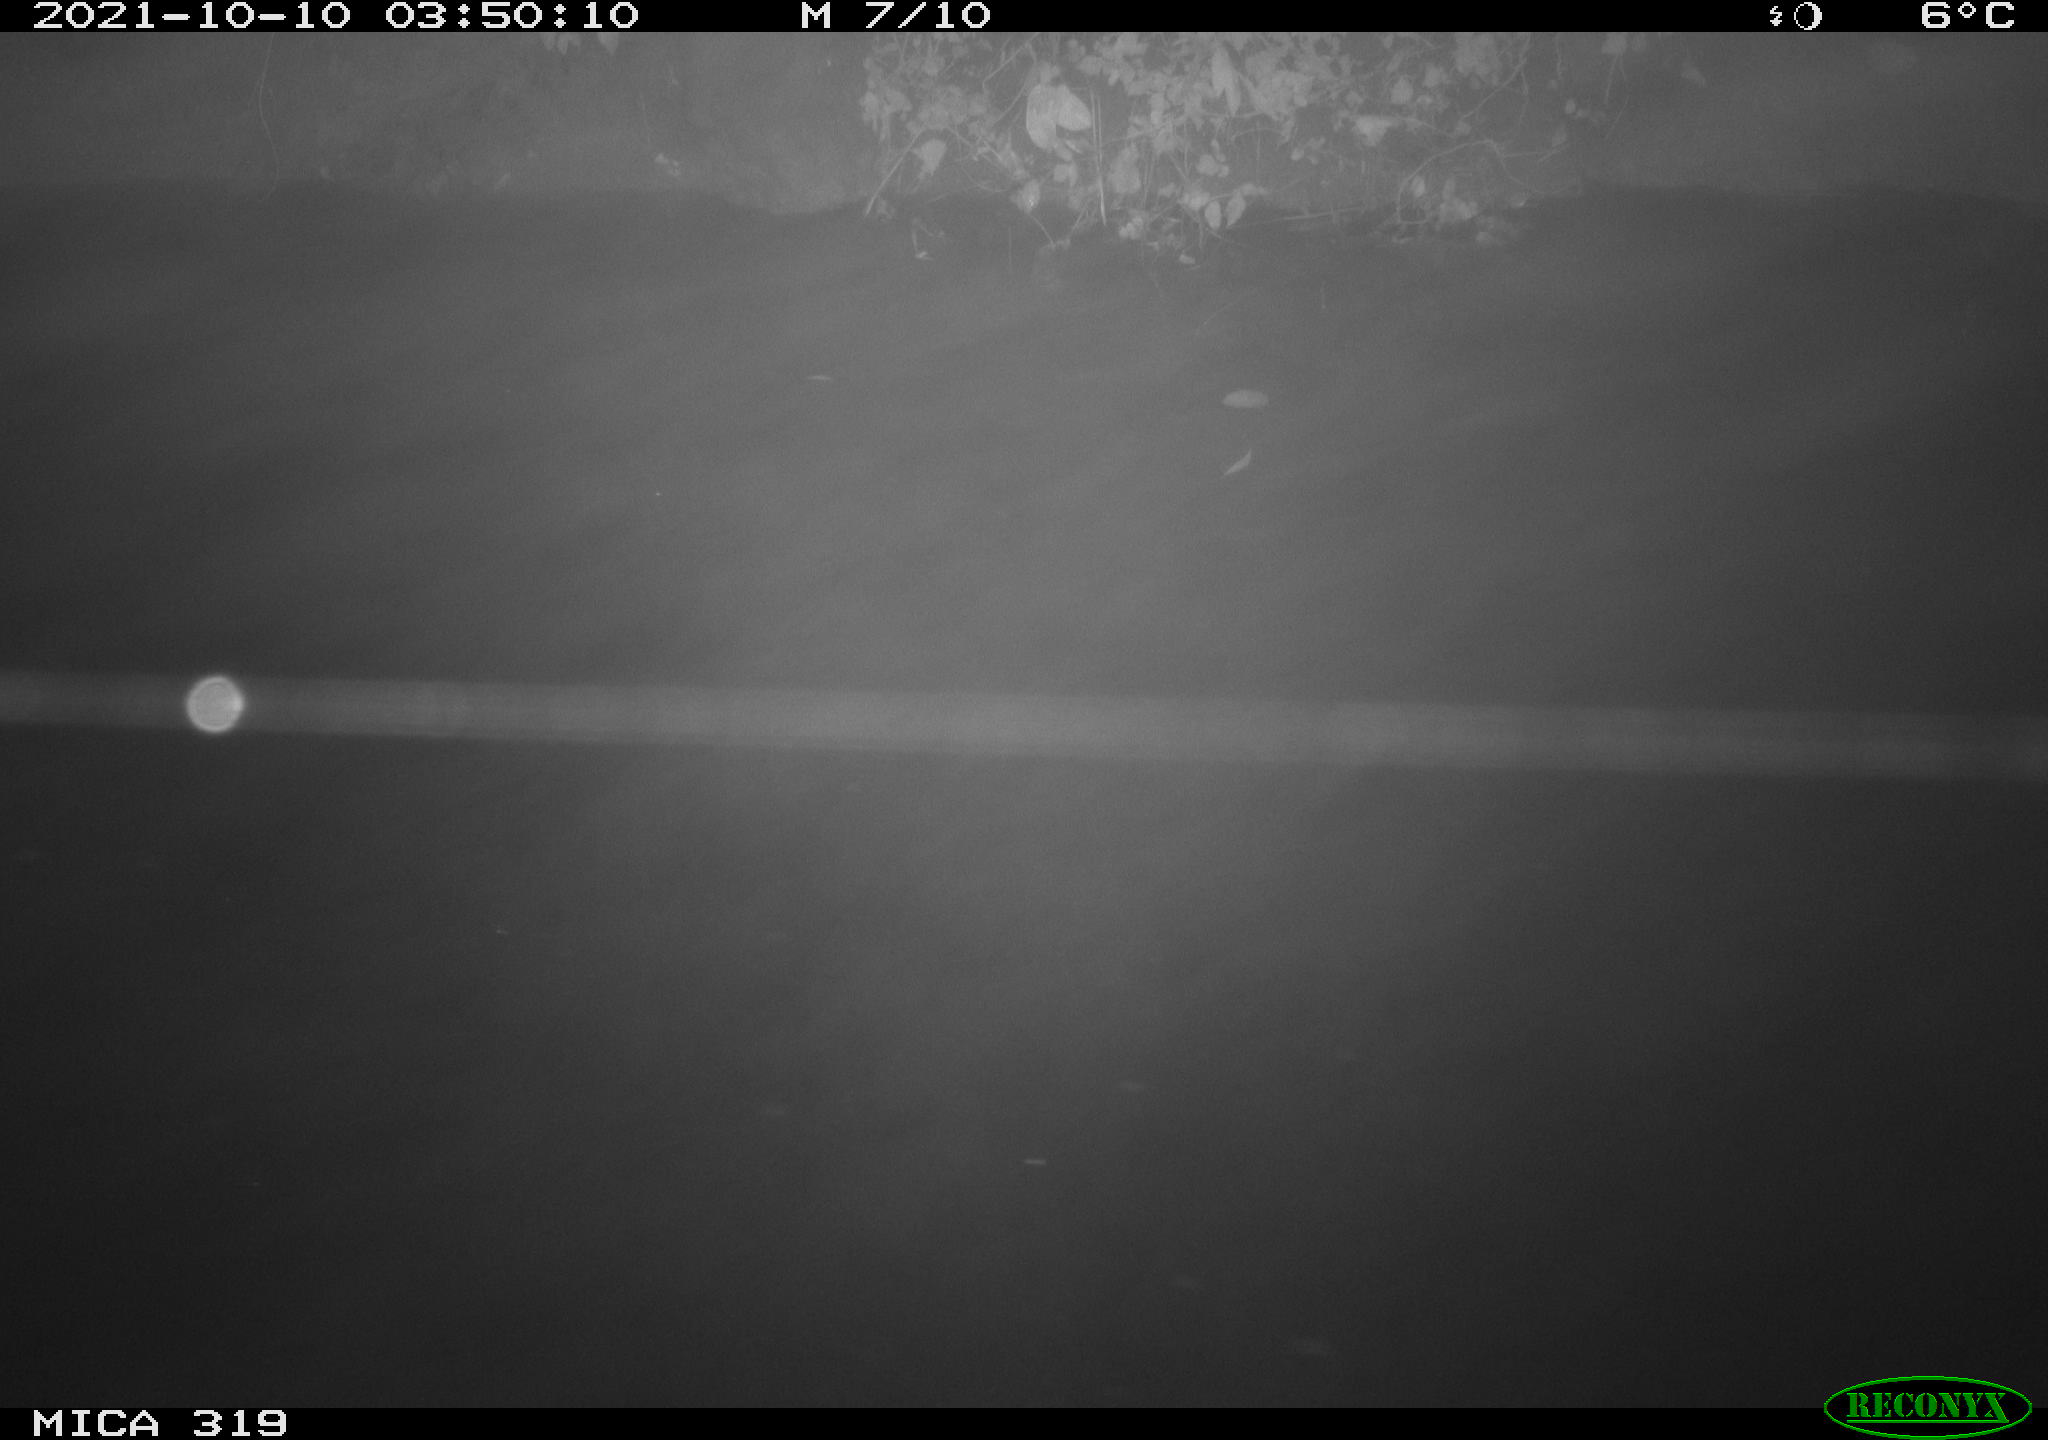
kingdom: Animalia
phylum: Chordata
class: Aves
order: Anseriformes
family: Anatidae
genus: Anas
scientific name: Anas platyrhynchos
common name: Mallard
